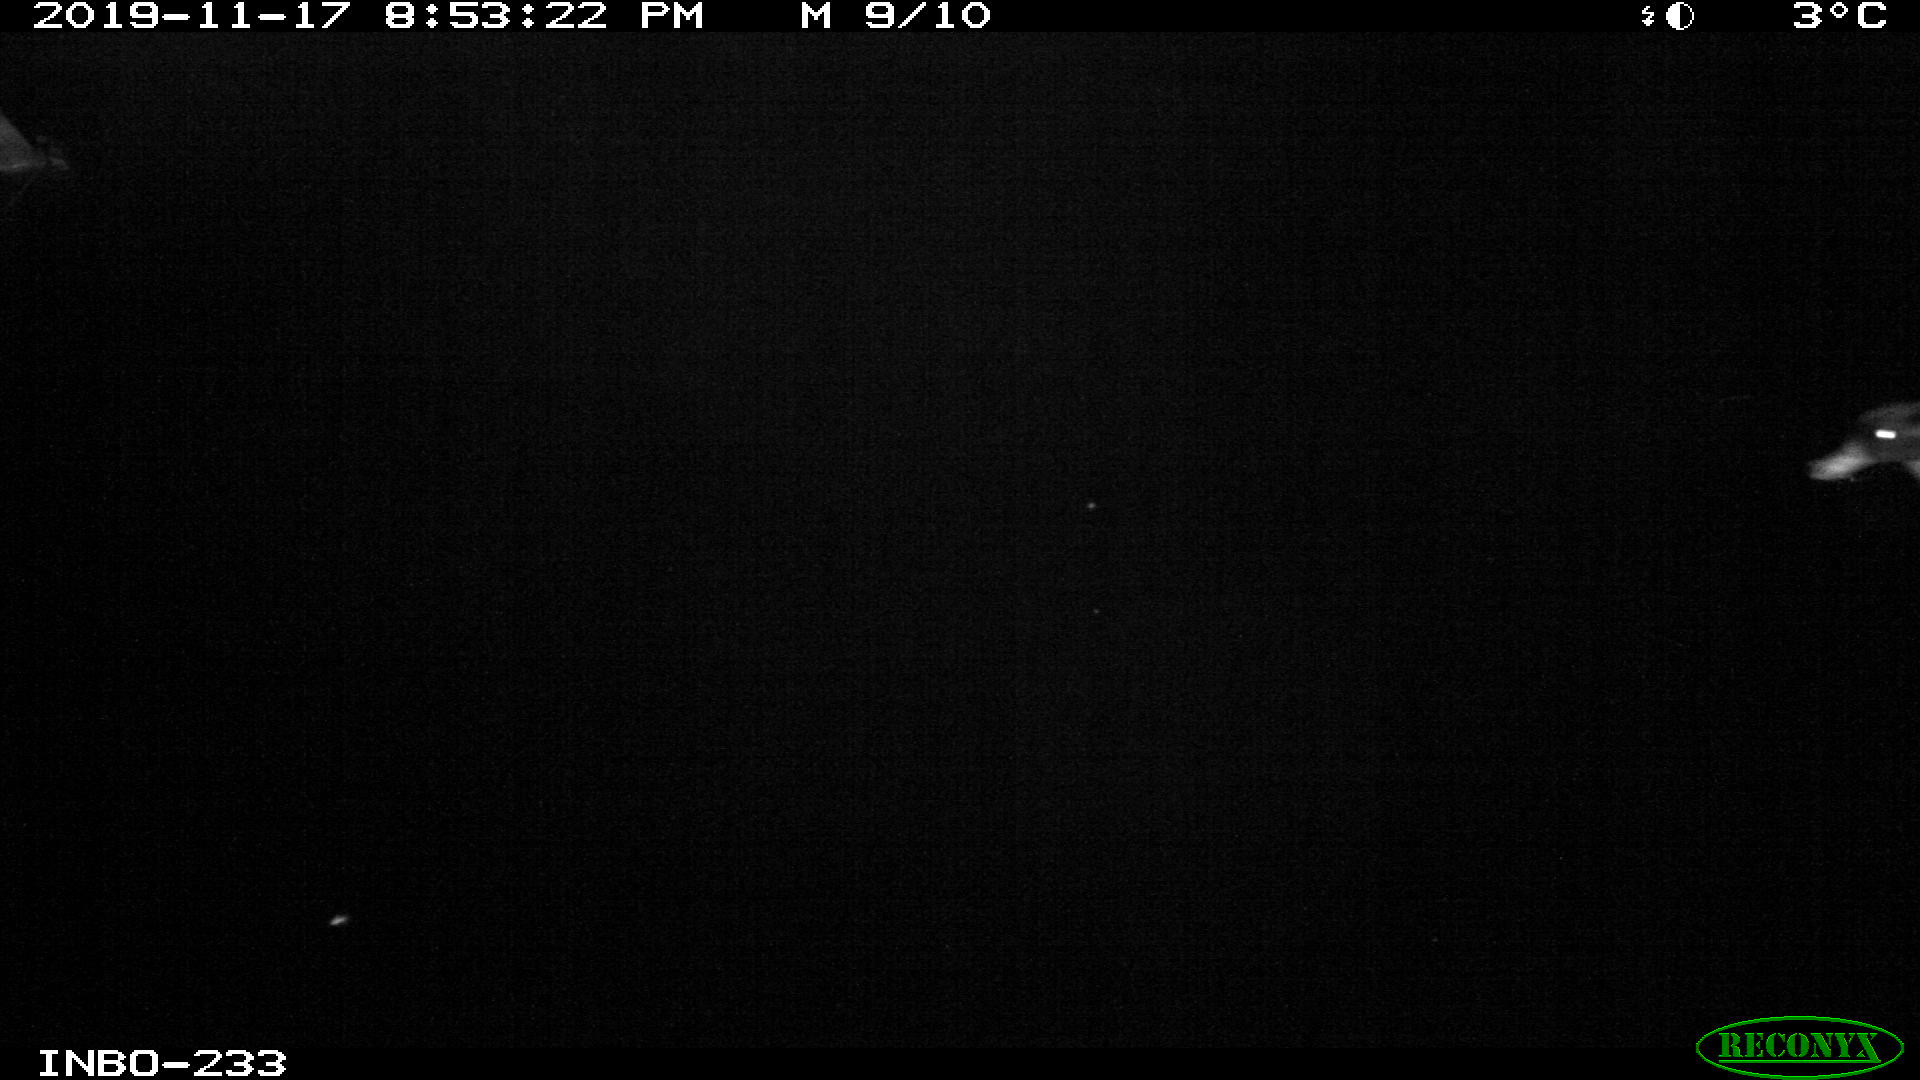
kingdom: Animalia
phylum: Chordata
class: Aves
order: Anseriformes
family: Anatidae
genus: Anas
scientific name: Anas platyrhynchos
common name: Mallard
